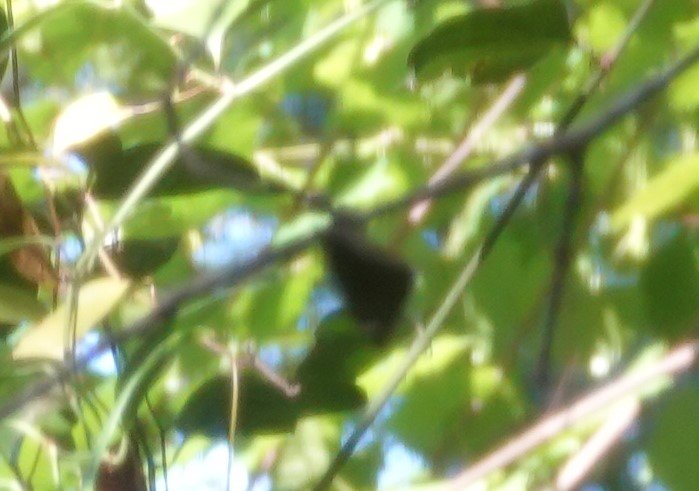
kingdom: Animalia
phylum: Arthropoda
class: Insecta
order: Lepidoptera
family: Hesperiidae
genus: Autochton
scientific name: Autochton
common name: Northern Cloudywing
